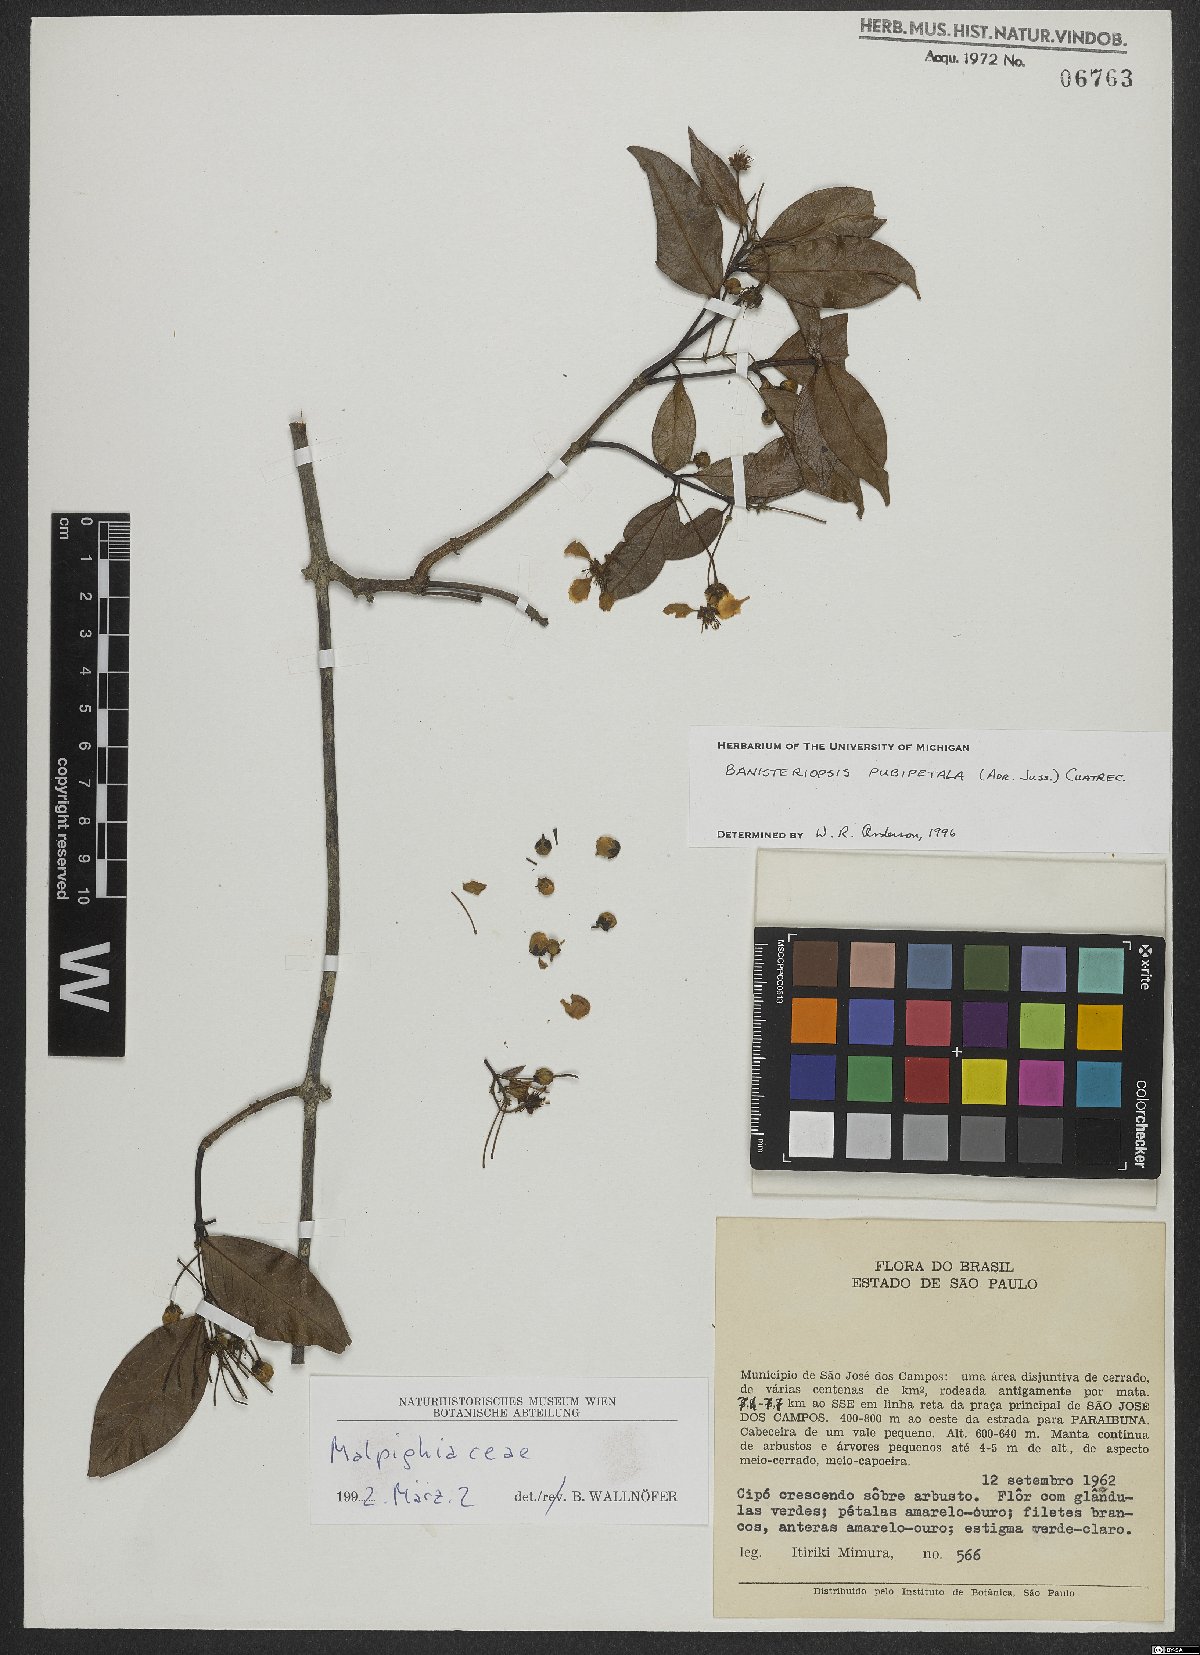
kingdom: Plantae
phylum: Tracheophyta
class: Magnoliopsida
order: Malpighiales
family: Malpighiaceae
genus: Diplopterys
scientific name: Diplopterys pubipetala
